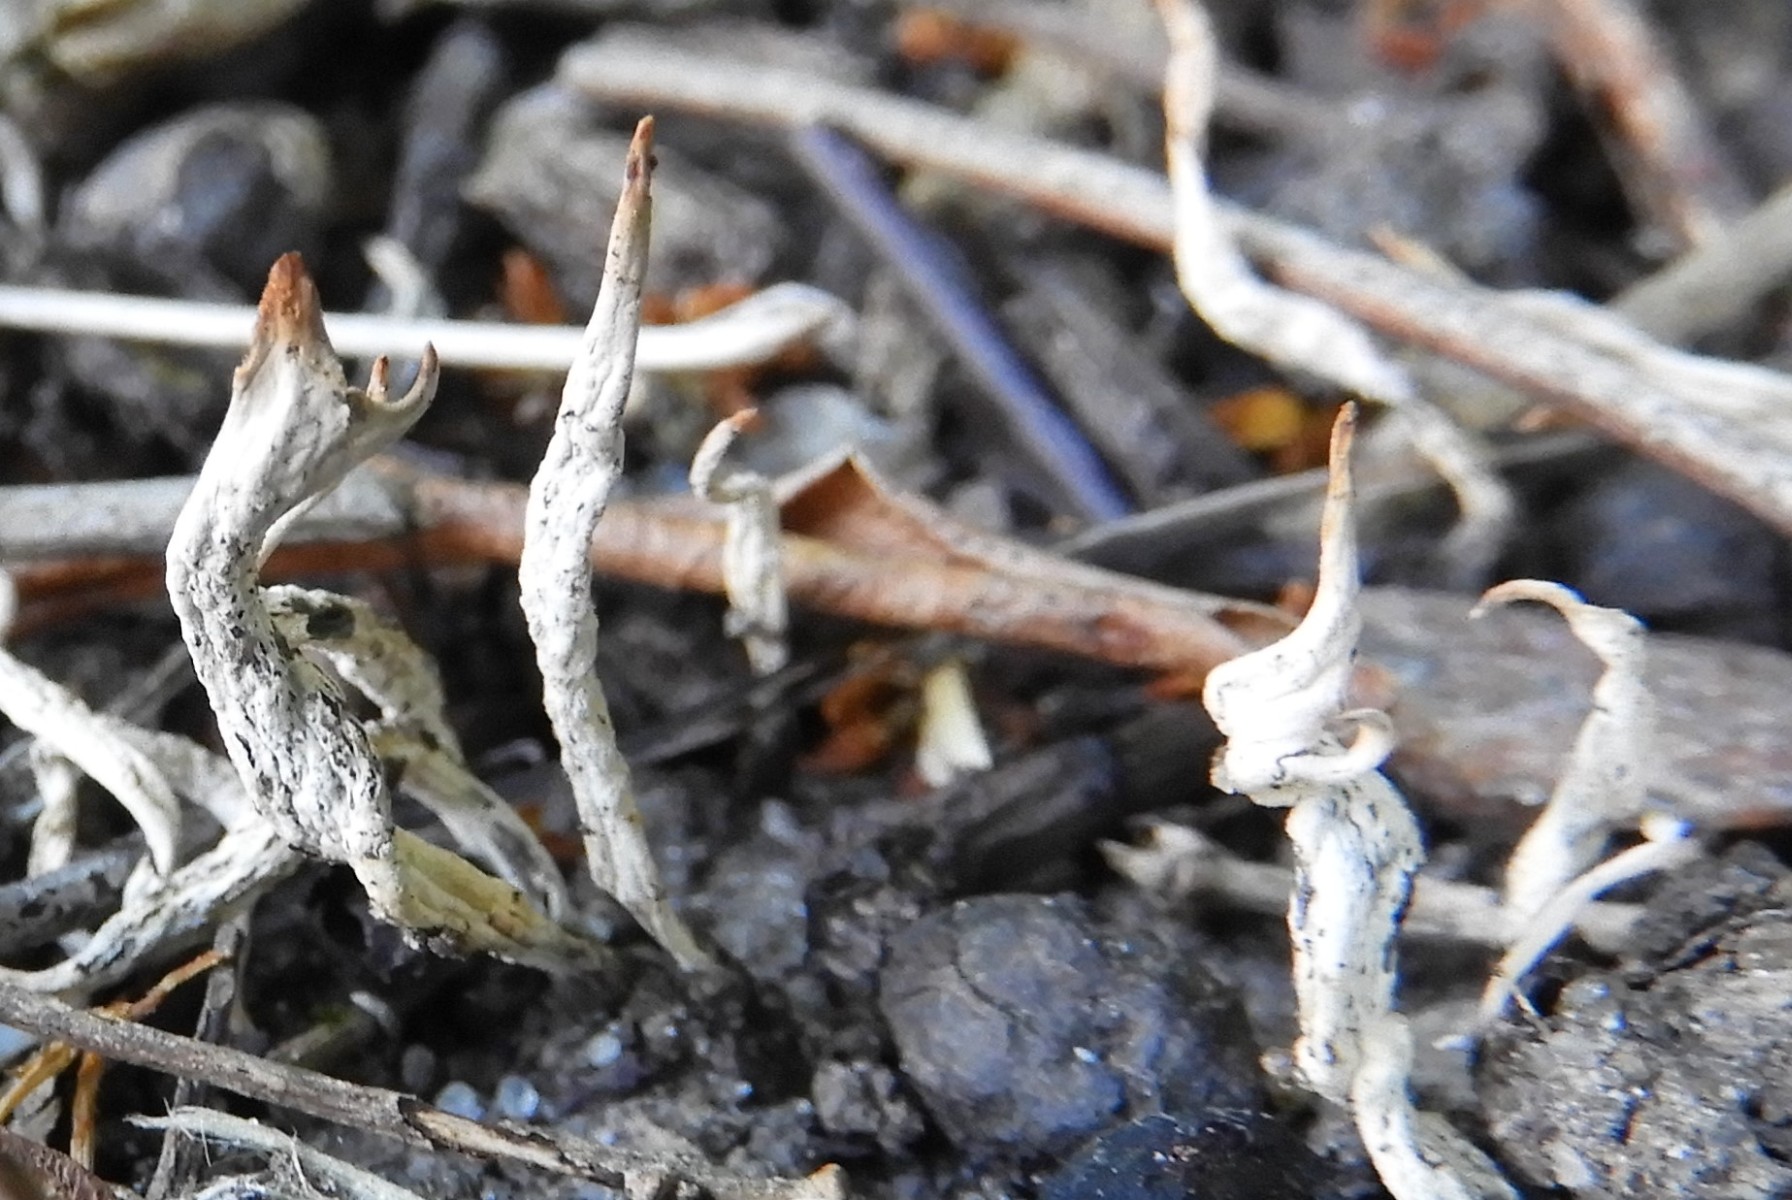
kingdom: Fungi
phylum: Ascomycota
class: Sordariomycetes
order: Xylariales
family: Xylariaceae
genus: Xylaria
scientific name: Xylaria oxyacanthae
